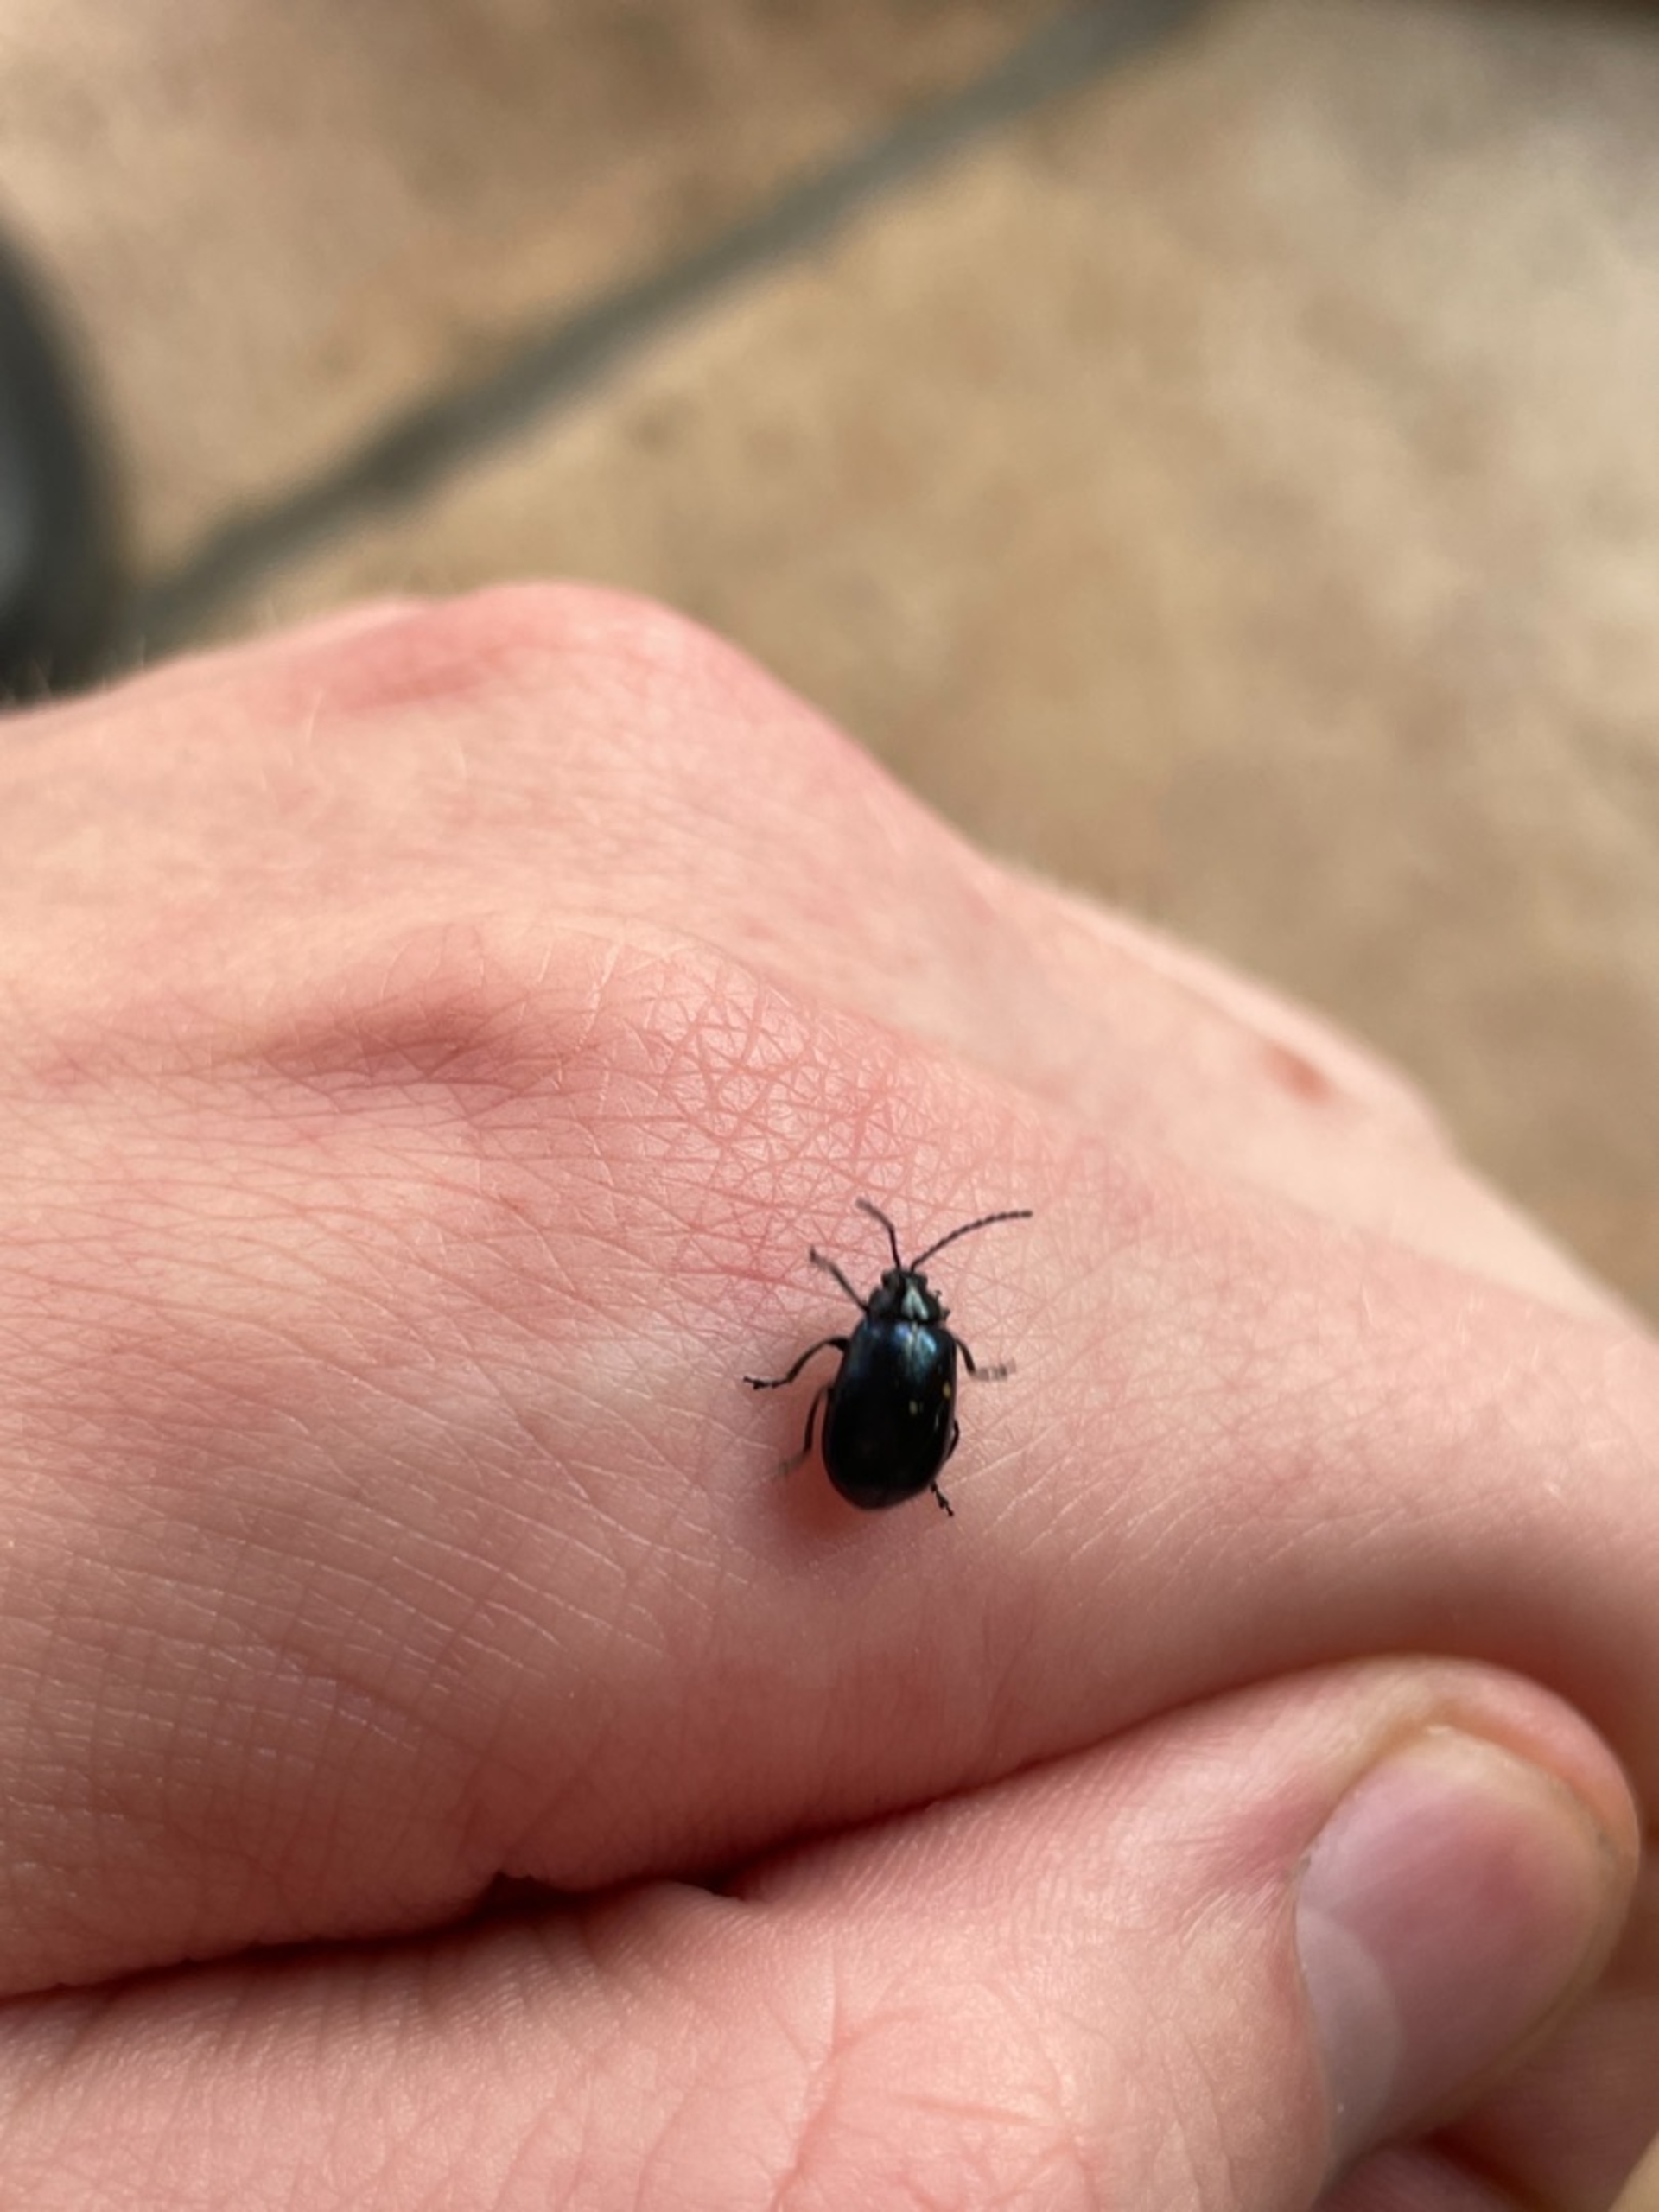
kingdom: Animalia
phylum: Arthropoda
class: Insecta
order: Coleoptera
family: Chrysomelidae
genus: Agelastica
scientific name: Agelastica alni
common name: Ellebladbille
